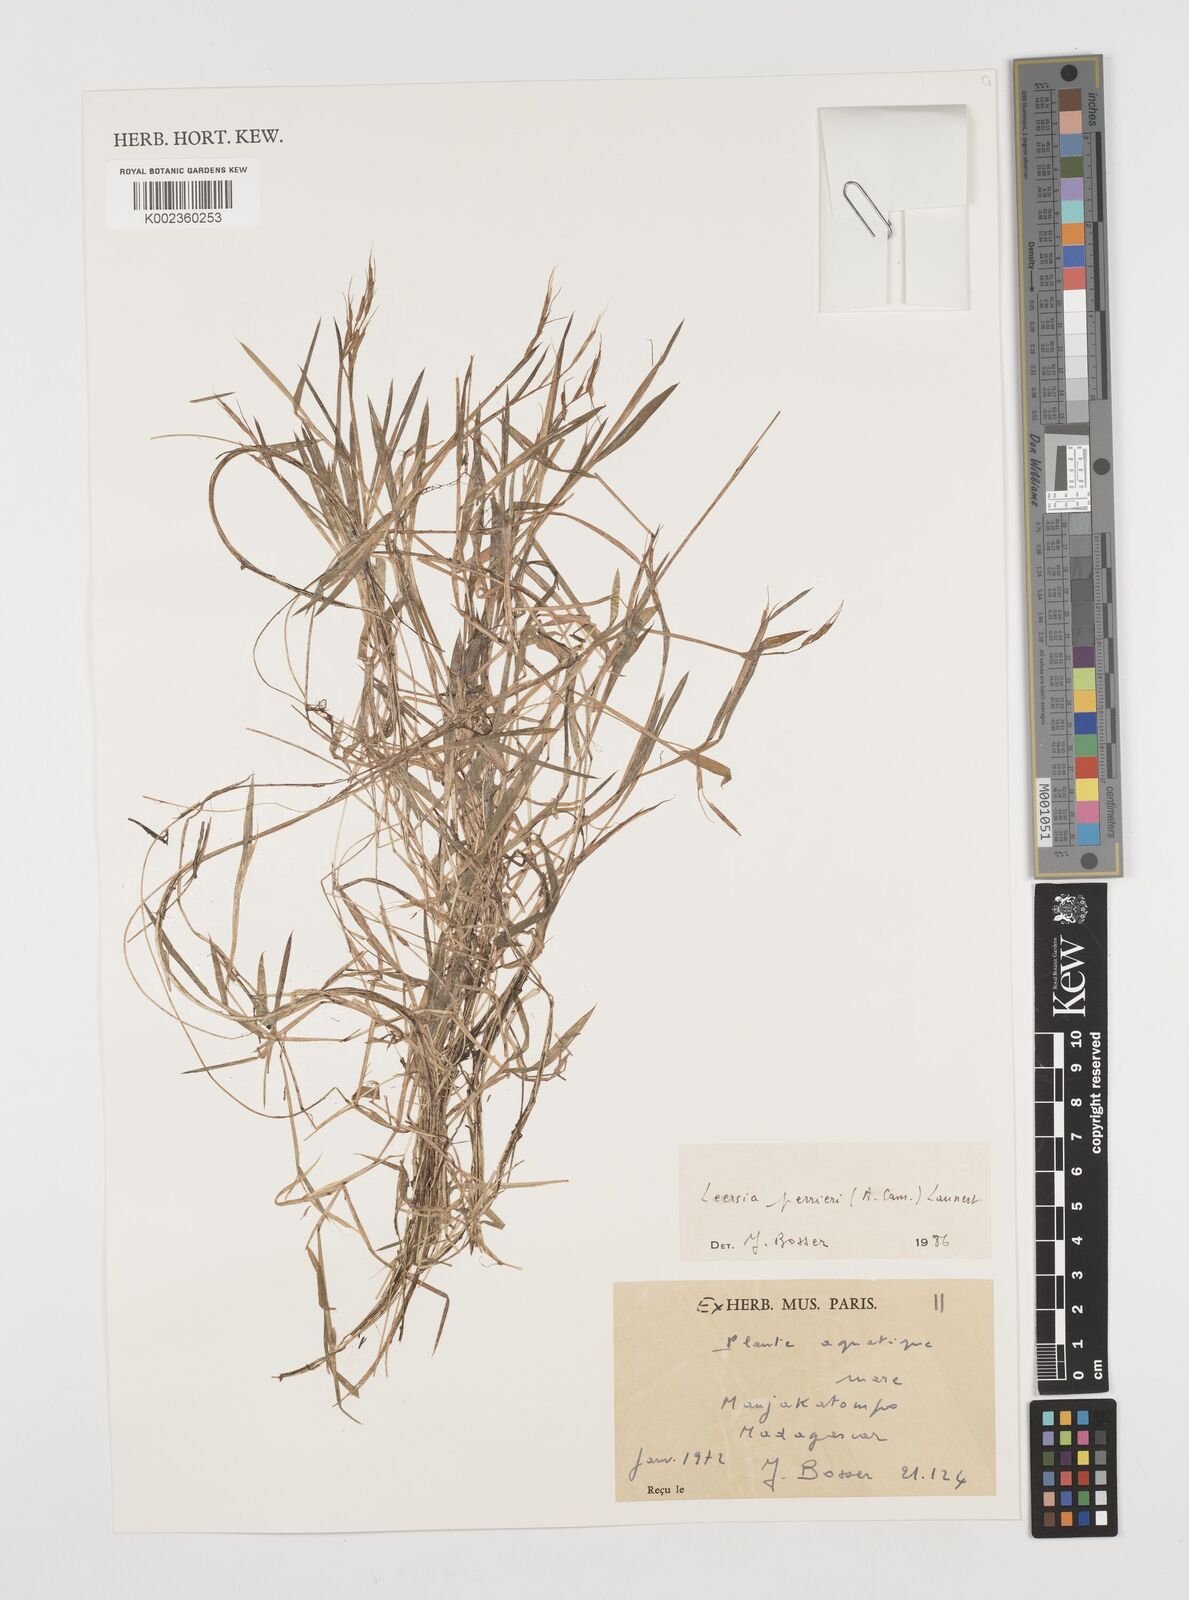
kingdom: Plantae
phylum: Tracheophyta
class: Liliopsida
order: Poales
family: Poaceae
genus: Leersia
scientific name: Leersia perrieri
